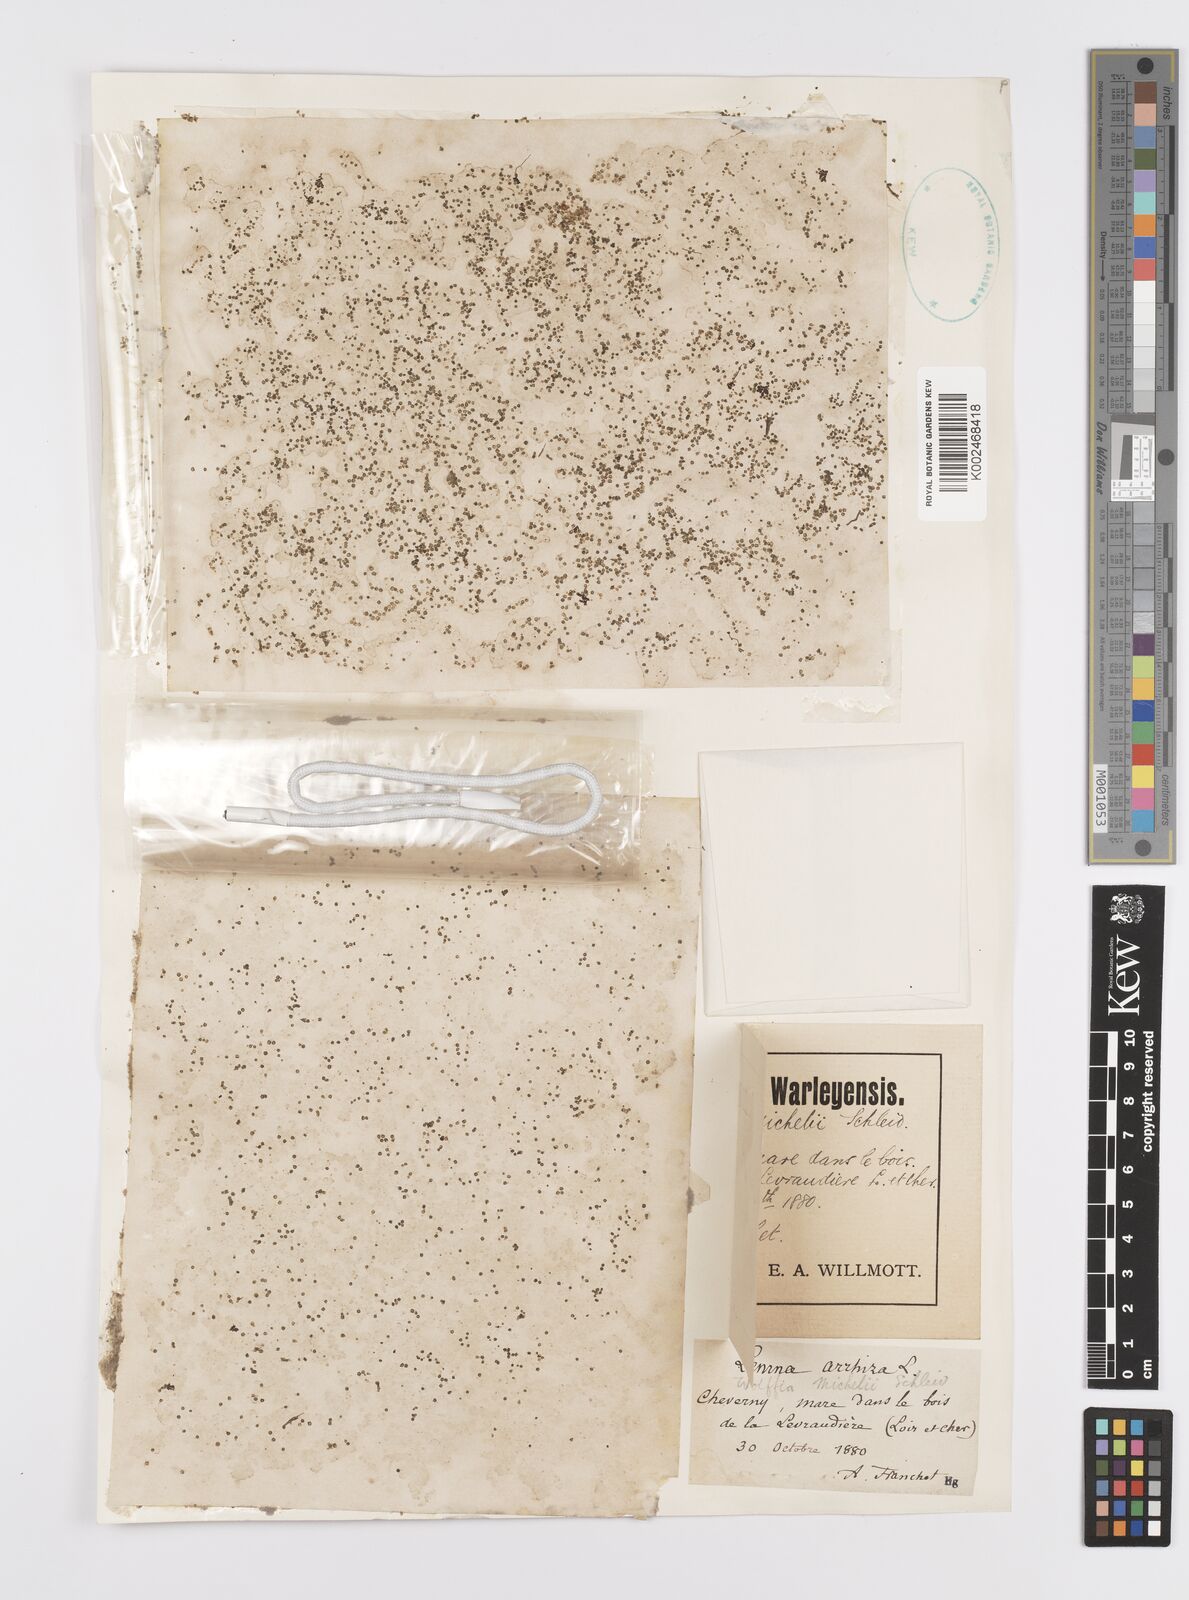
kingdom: Plantae
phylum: Tracheophyta
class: Liliopsida
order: Alismatales
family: Araceae
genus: Wolffia
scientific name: Wolffia arrhiza
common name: Rootless duckweed
